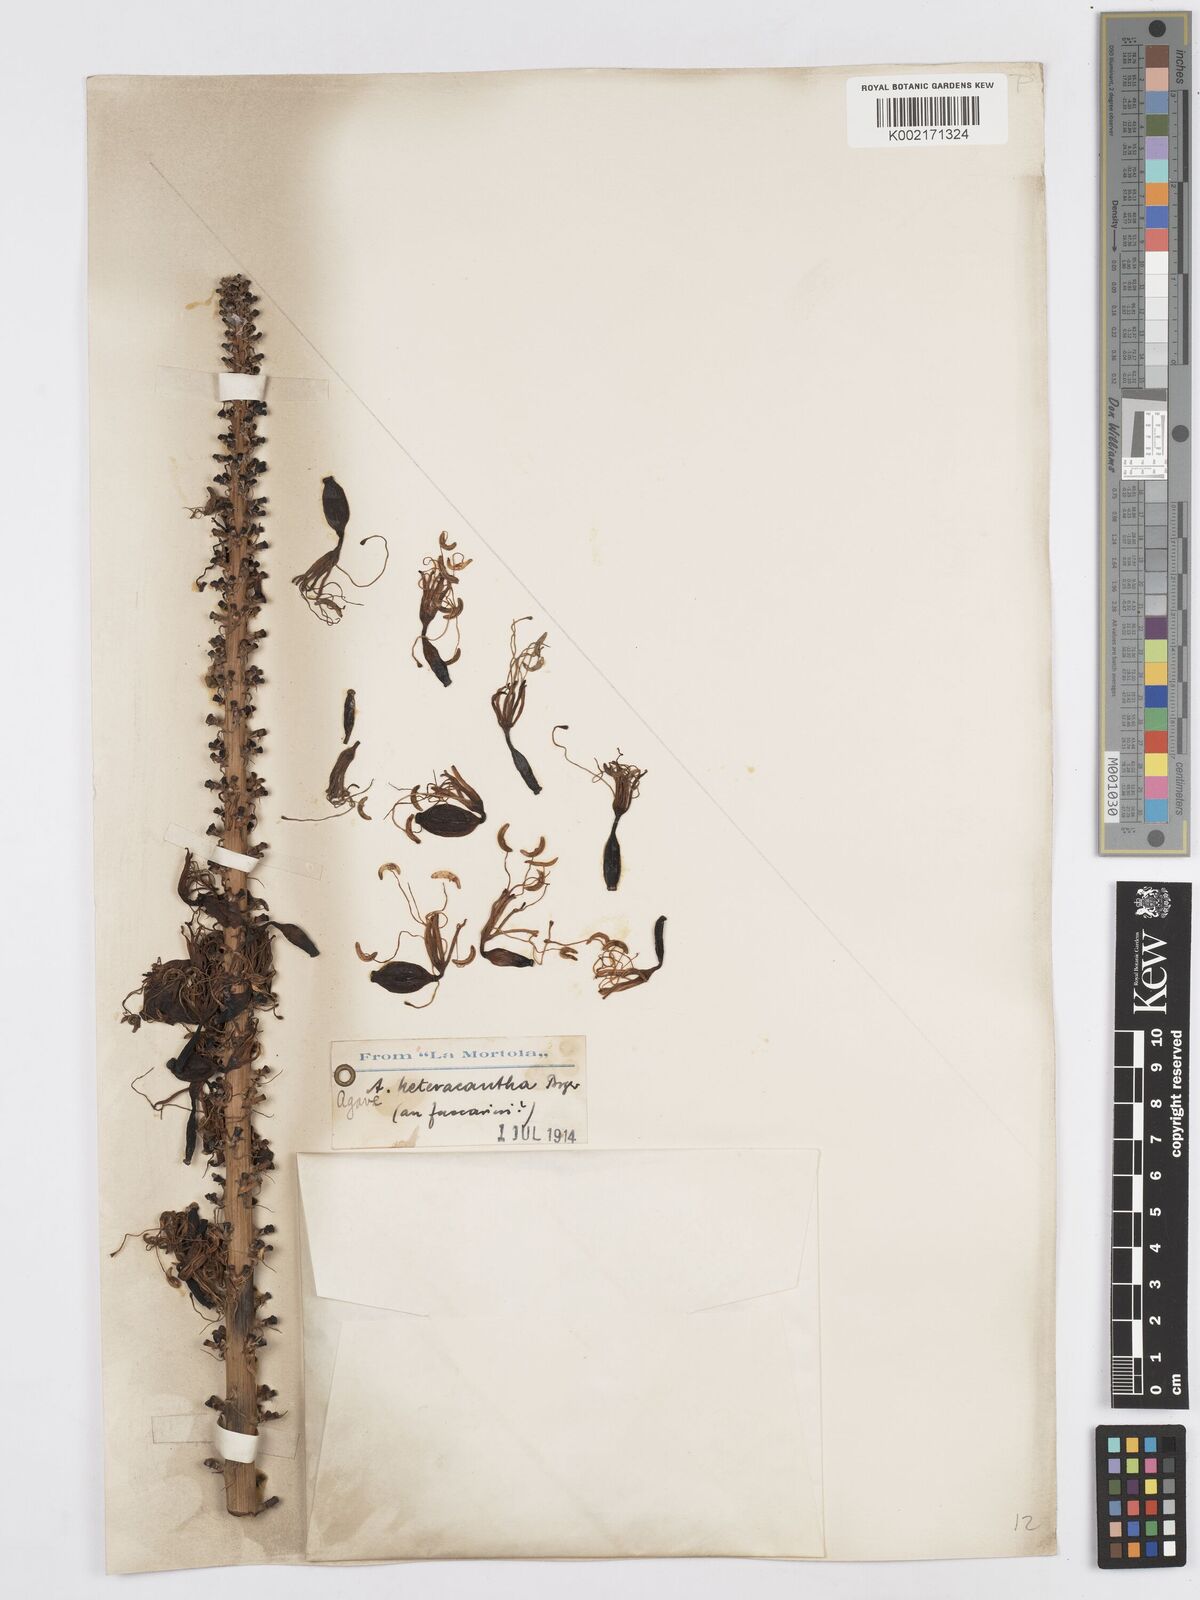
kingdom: Plantae
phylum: Tracheophyta
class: Liliopsida
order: Asparagales
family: Asparagaceae
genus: Agave
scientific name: Agave lechuguilla
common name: Lecheguilla agave
